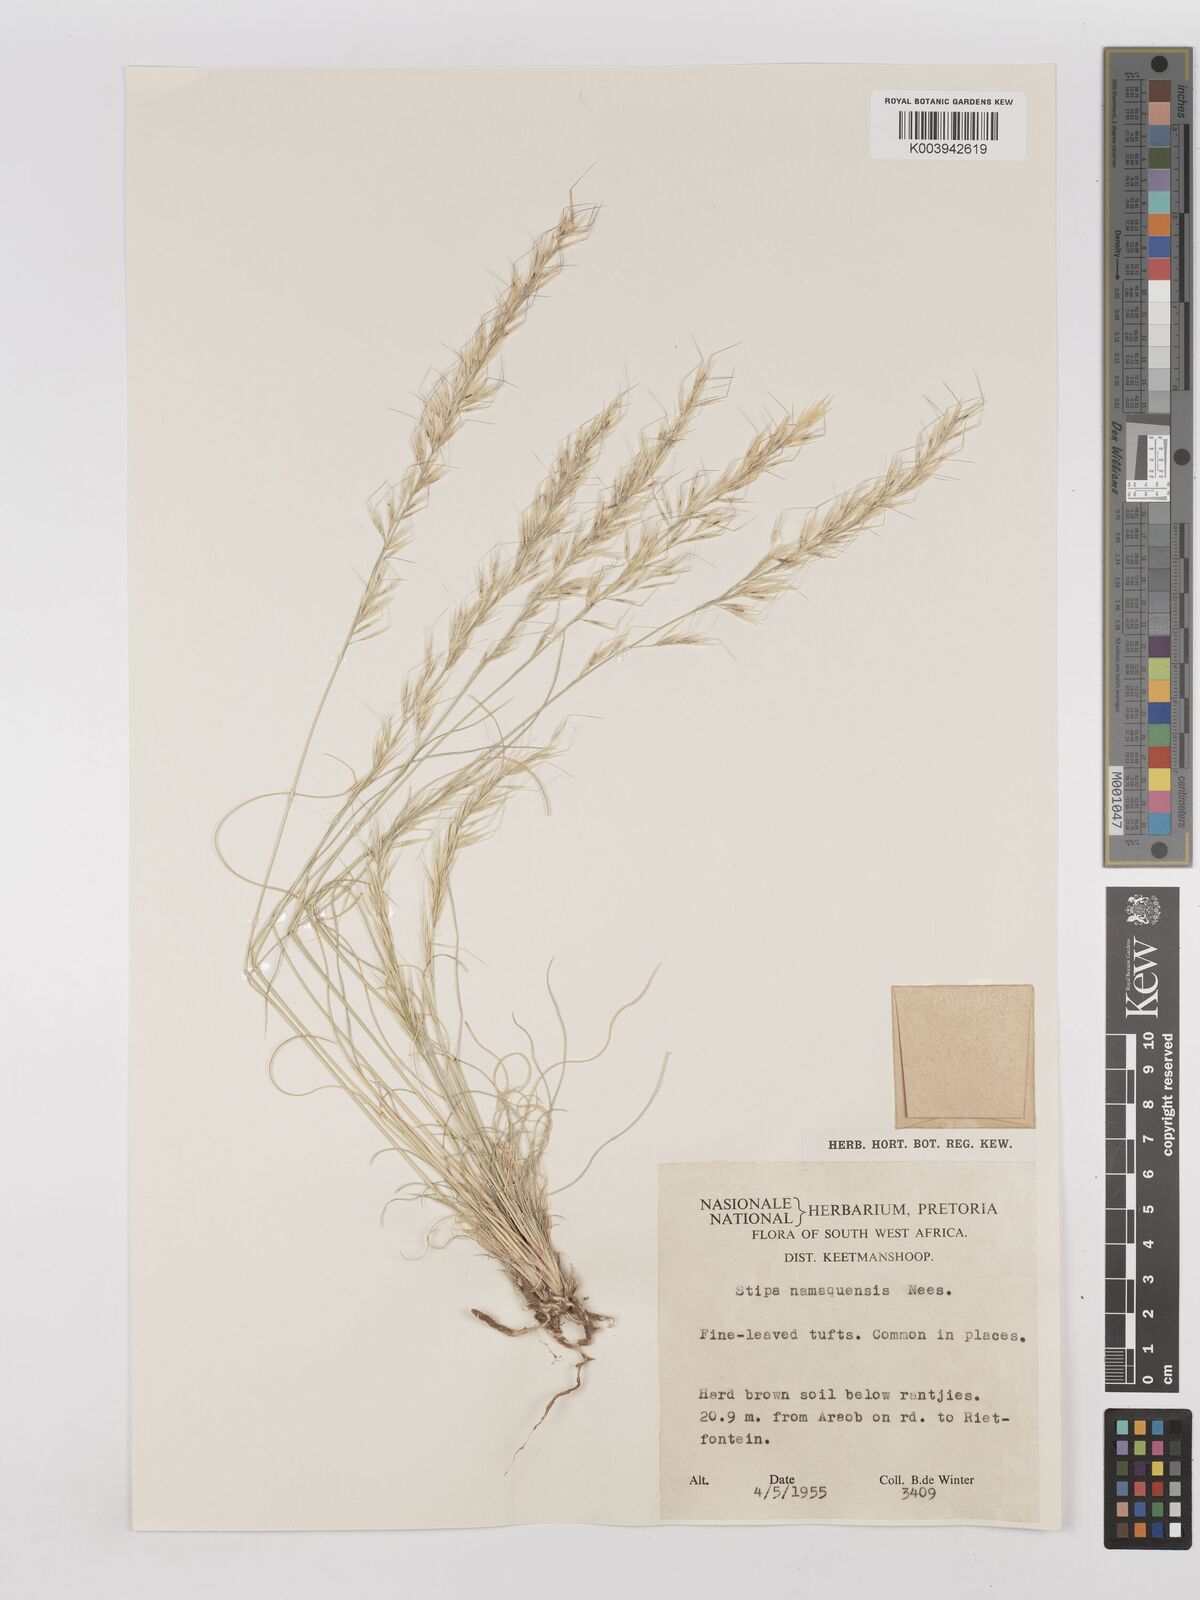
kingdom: Plantae
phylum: Tracheophyta
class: Liliopsida
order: Poales
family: Poaceae
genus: Stipagrostis
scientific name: Stipagrostis anomala
